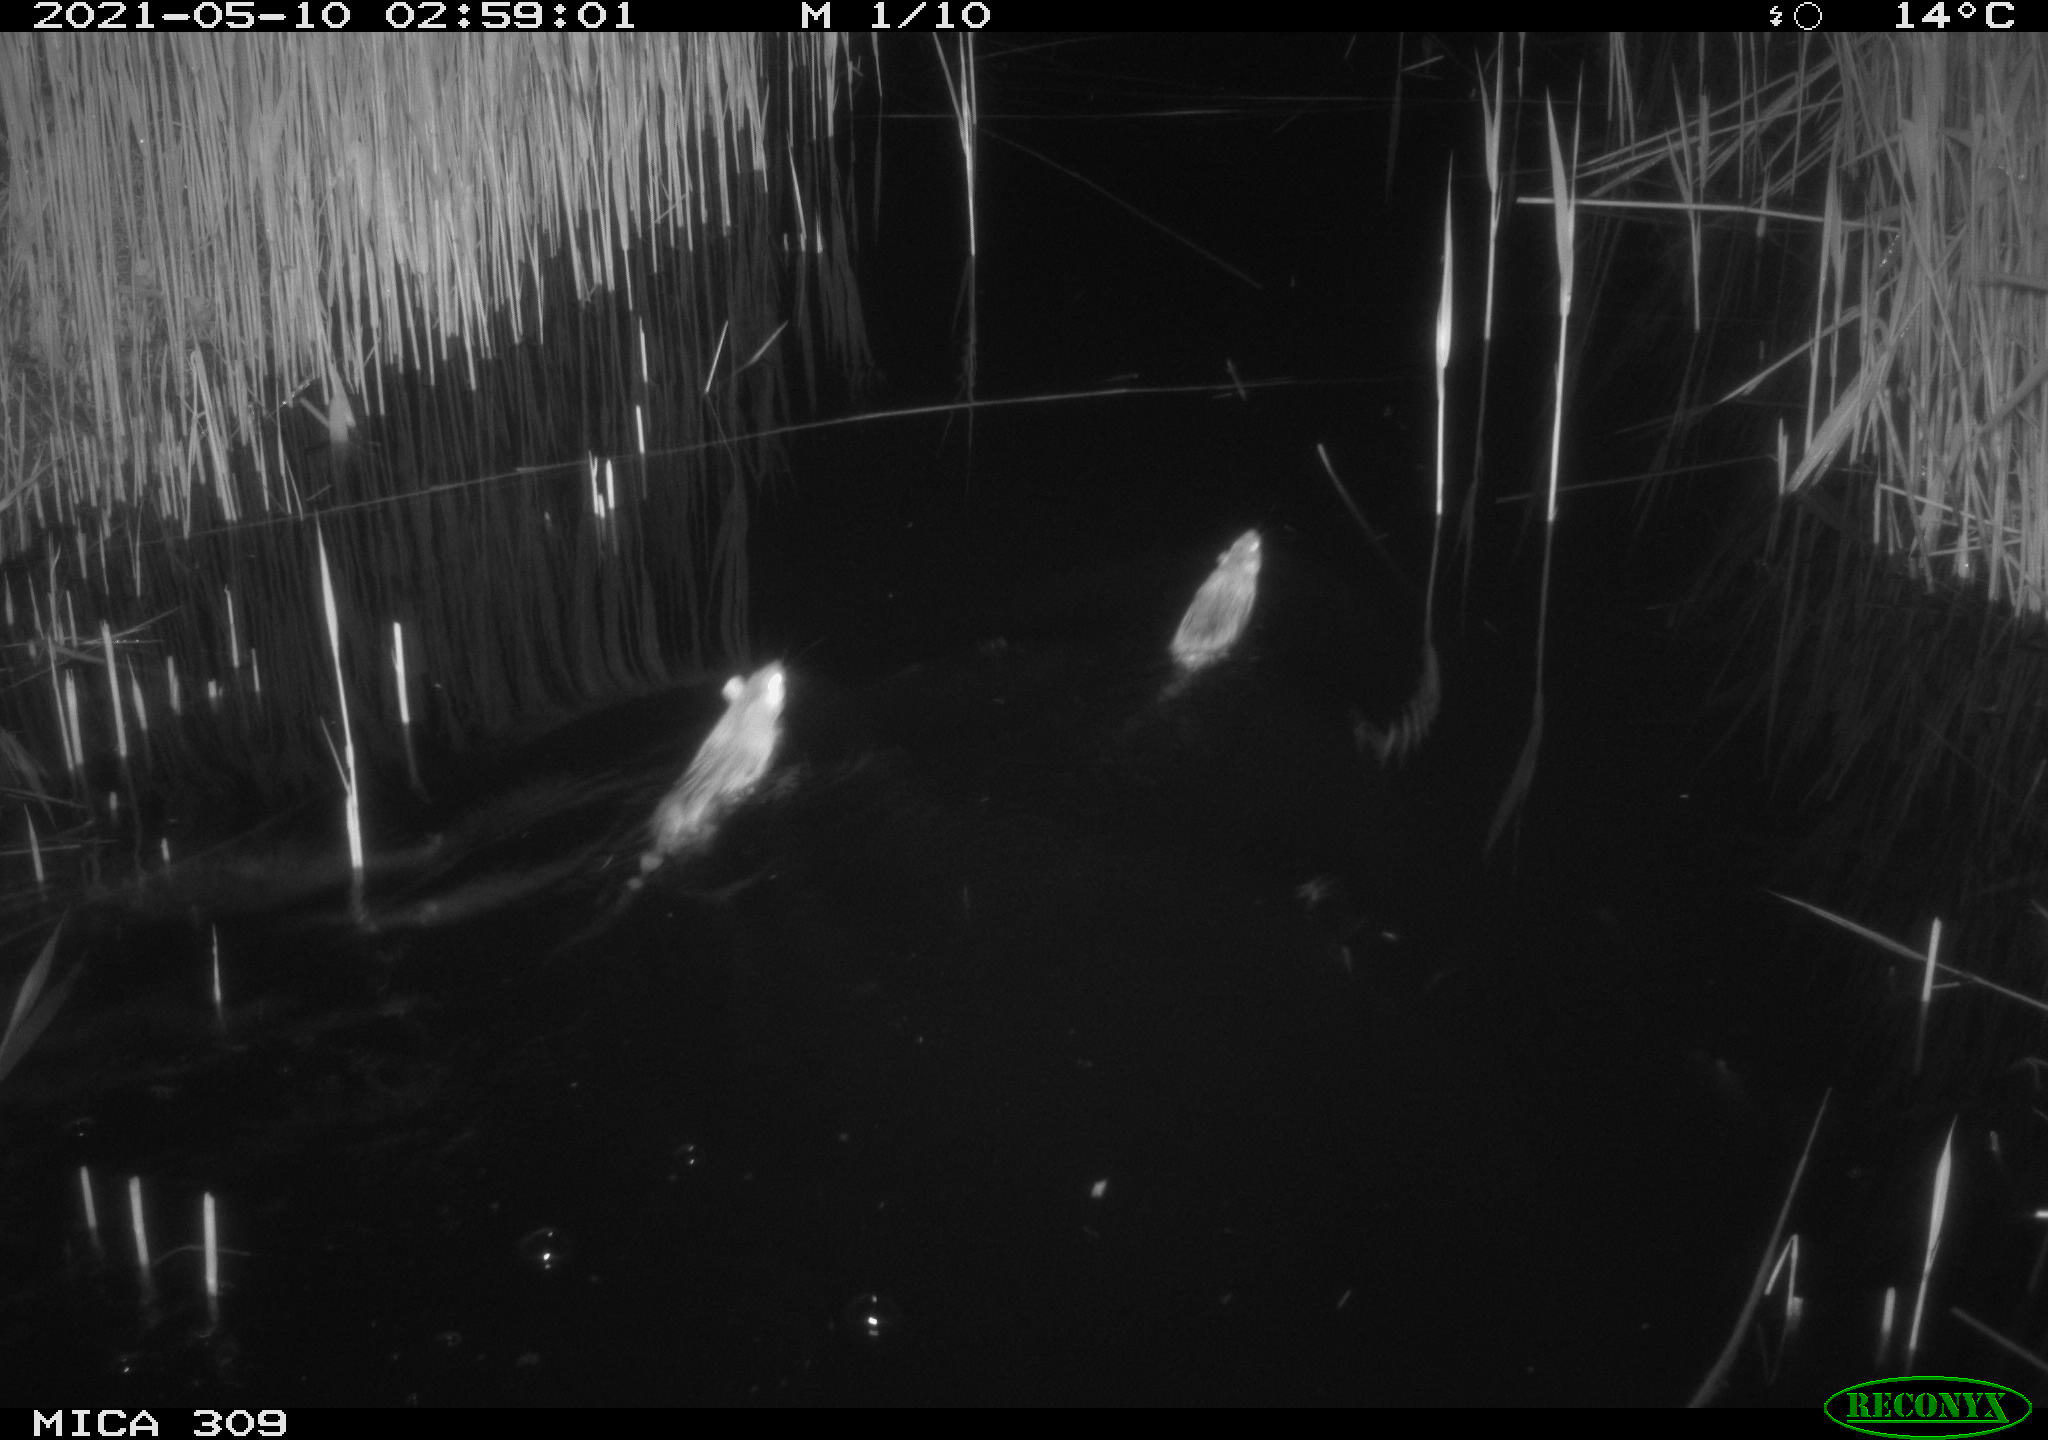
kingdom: Animalia
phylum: Chordata
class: Mammalia
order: Rodentia
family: Muridae
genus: Rattus
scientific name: Rattus norvegicus
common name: Brown rat
